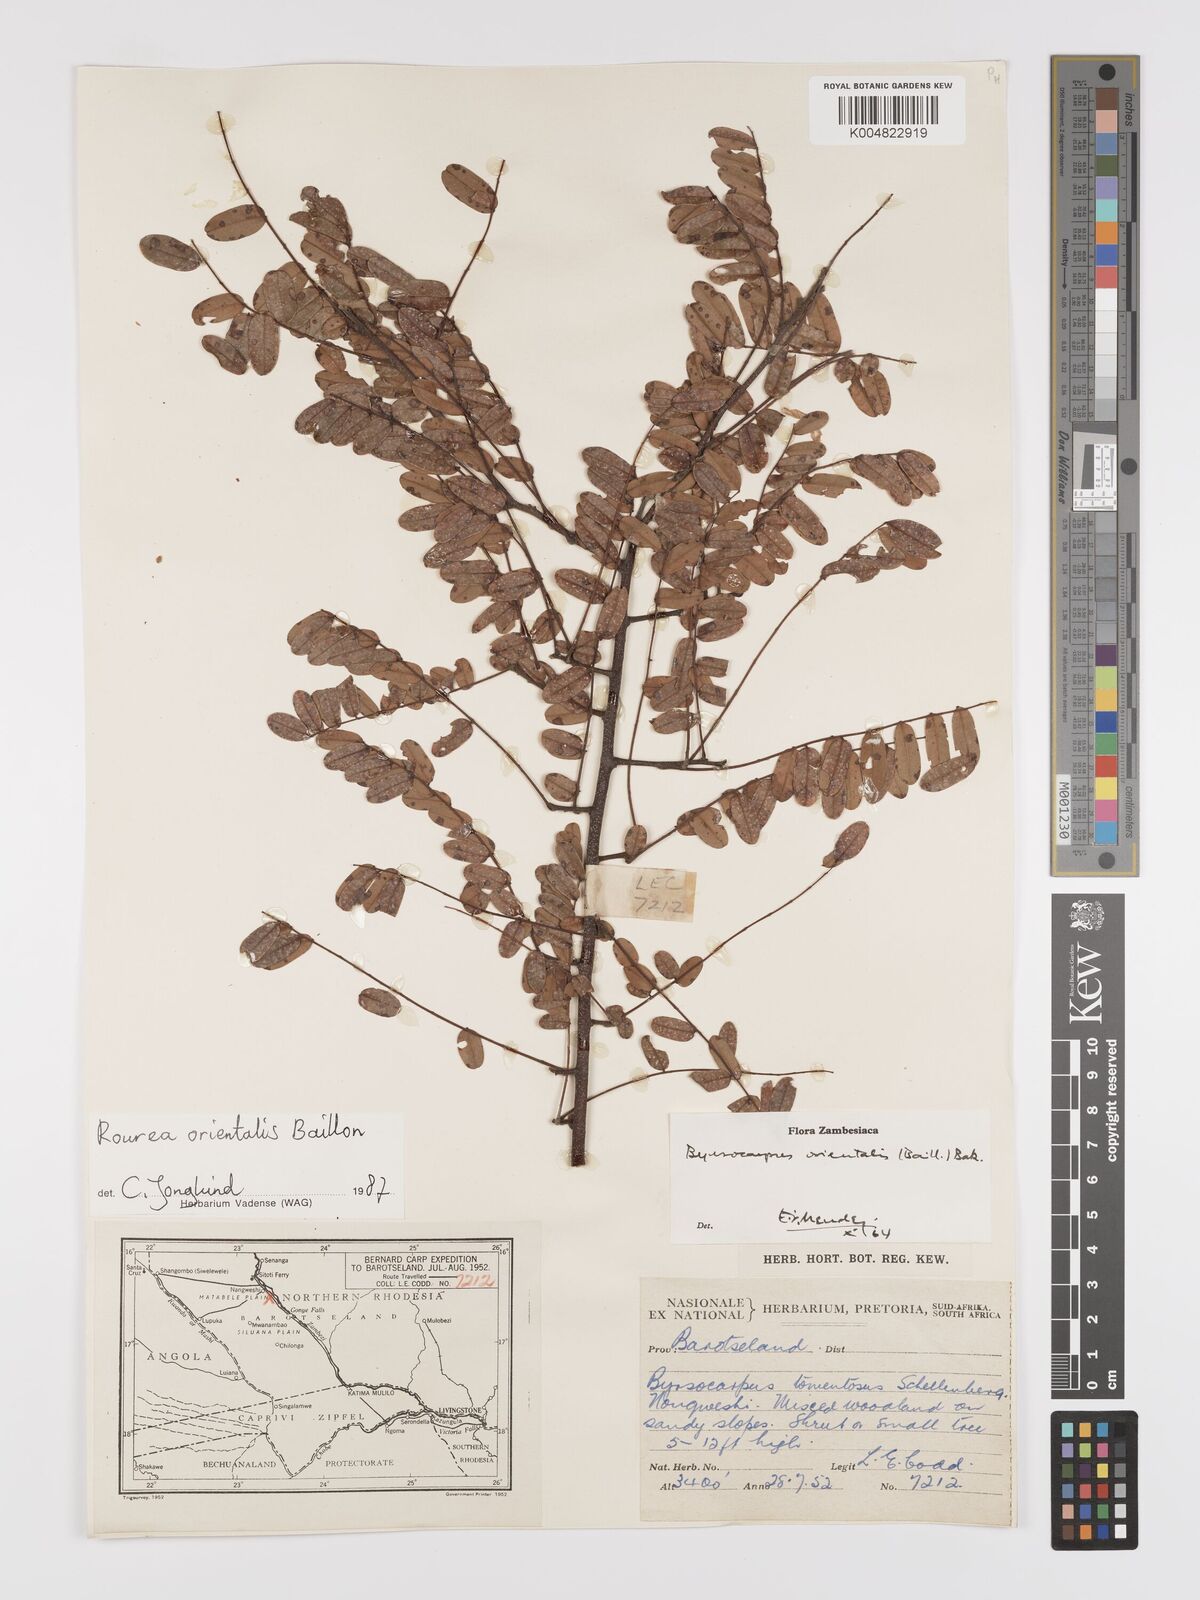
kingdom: Plantae
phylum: Tracheophyta
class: Magnoliopsida
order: Oxalidales
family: Connaraceae
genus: Rourea
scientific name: Rourea orientalis
